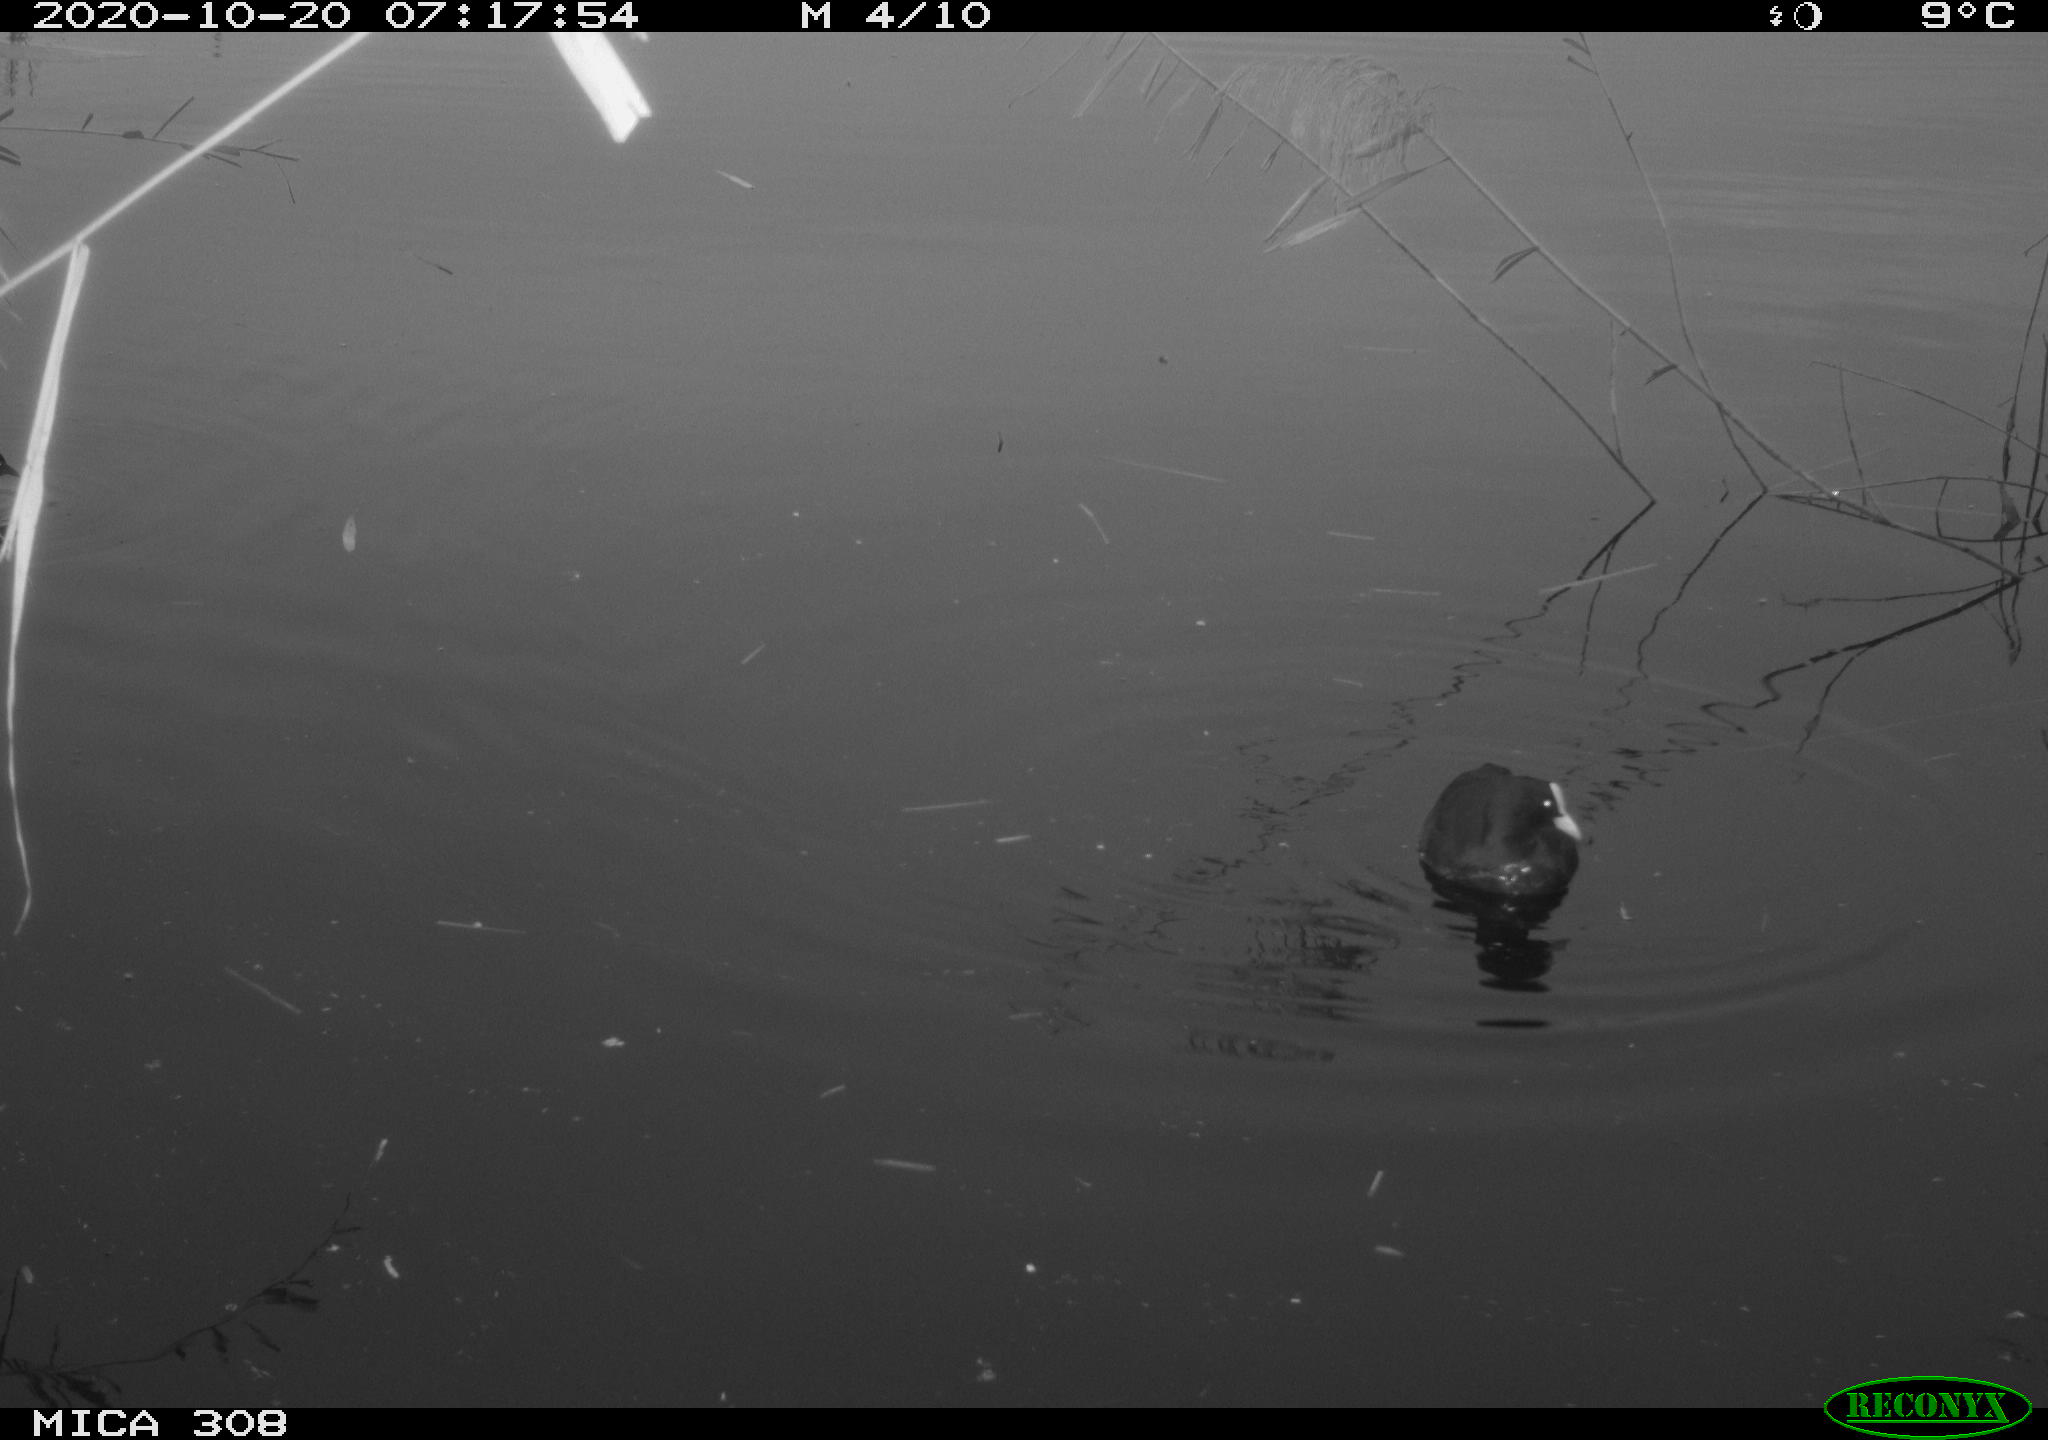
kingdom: Animalia
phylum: Chordata
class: Aves
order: Gruiformes
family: Rallidae
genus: Fulica
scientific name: Fulica atra
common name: Eurasian coot
